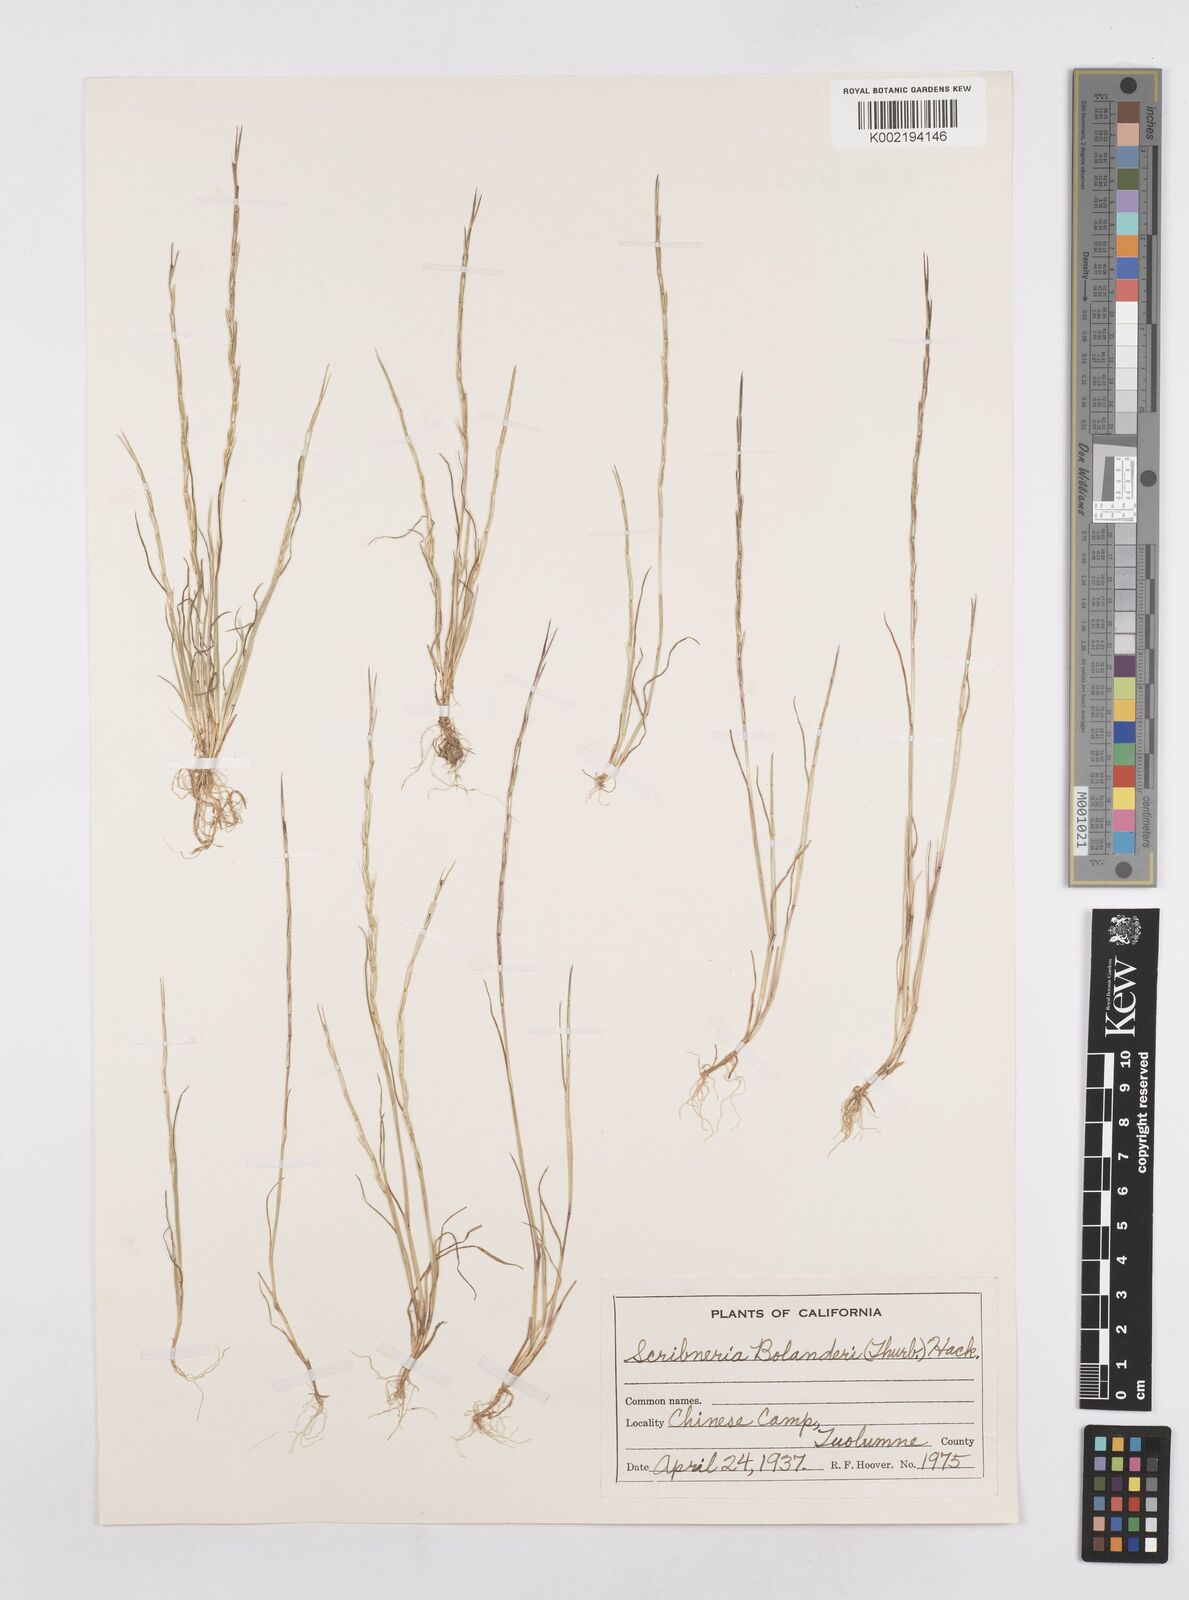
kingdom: Plantae
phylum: Tracheophyta
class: Liliopsida
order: Poales
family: Poaceae
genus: Deschampsia
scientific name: Deschampsia bolanderi
